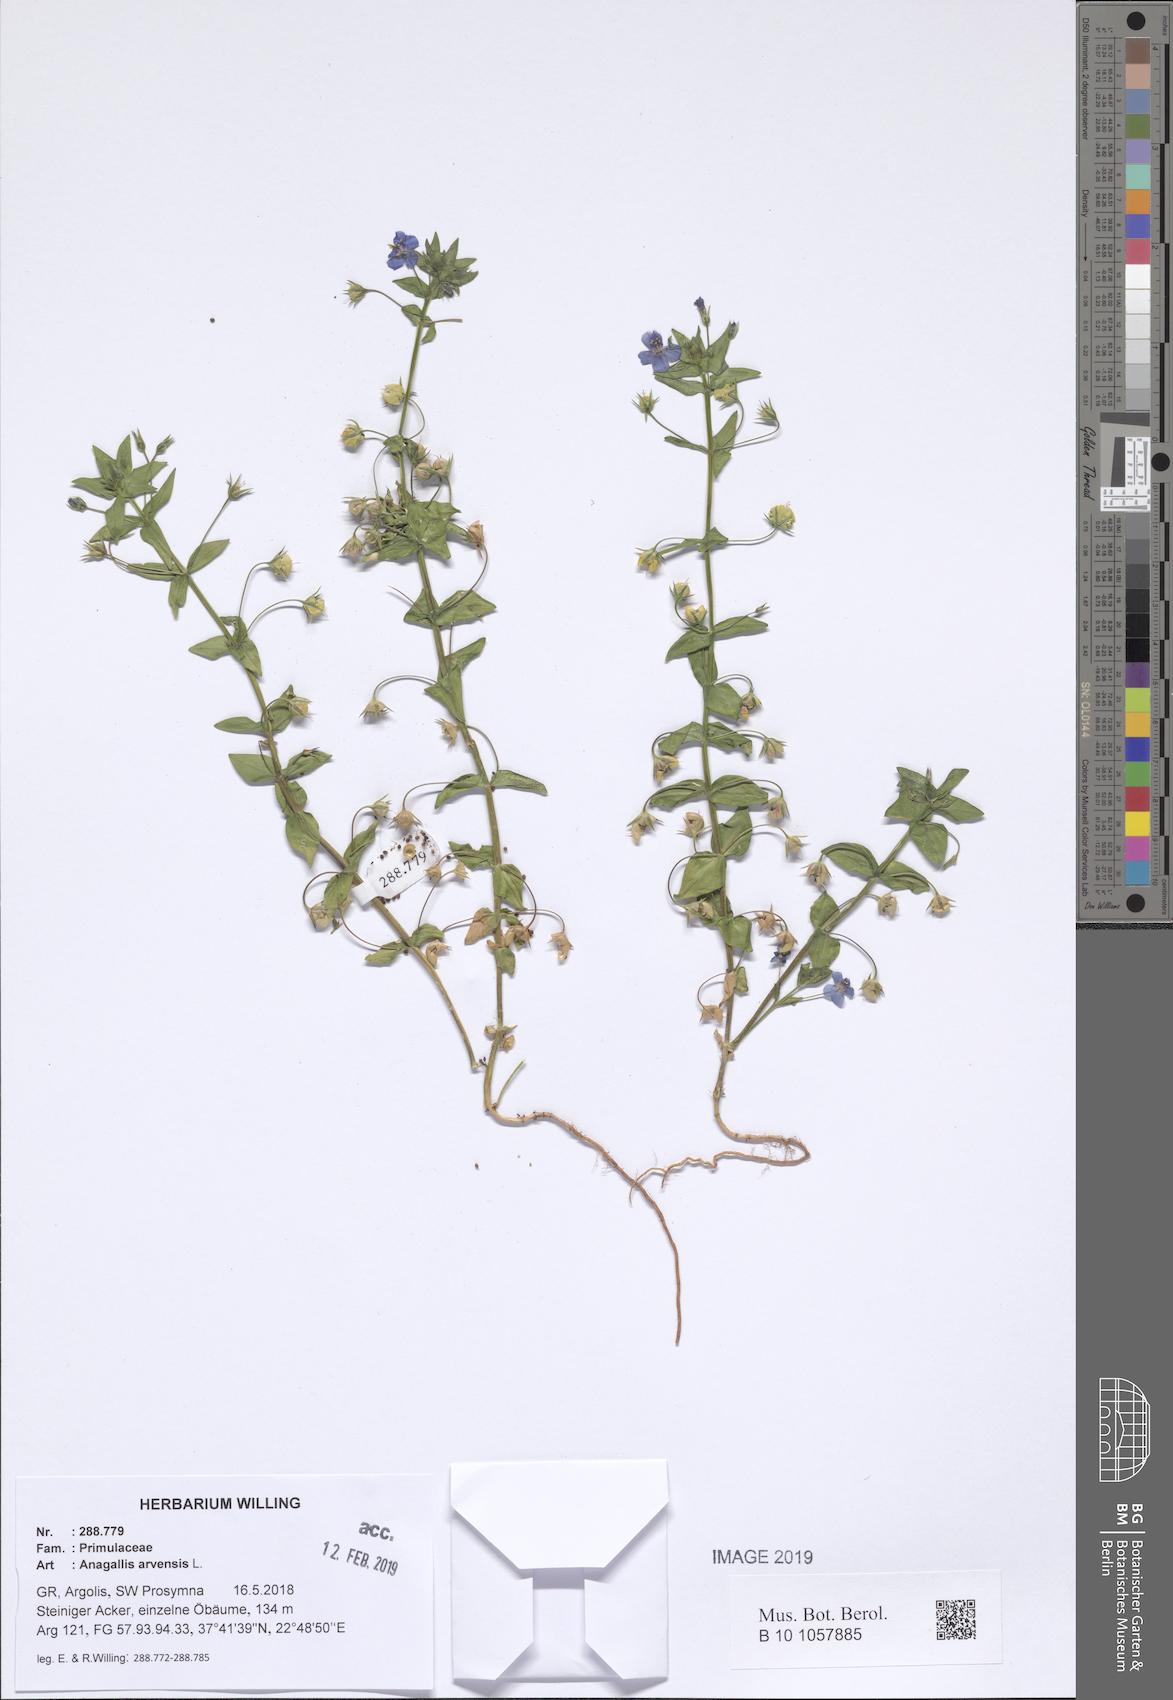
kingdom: Plantae
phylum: Tracheophyta
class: Magnoliopsida
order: Ericales
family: Primulaceae
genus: Lysimachia
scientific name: Lysimachia arvensis
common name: Scarlet pimpernel
